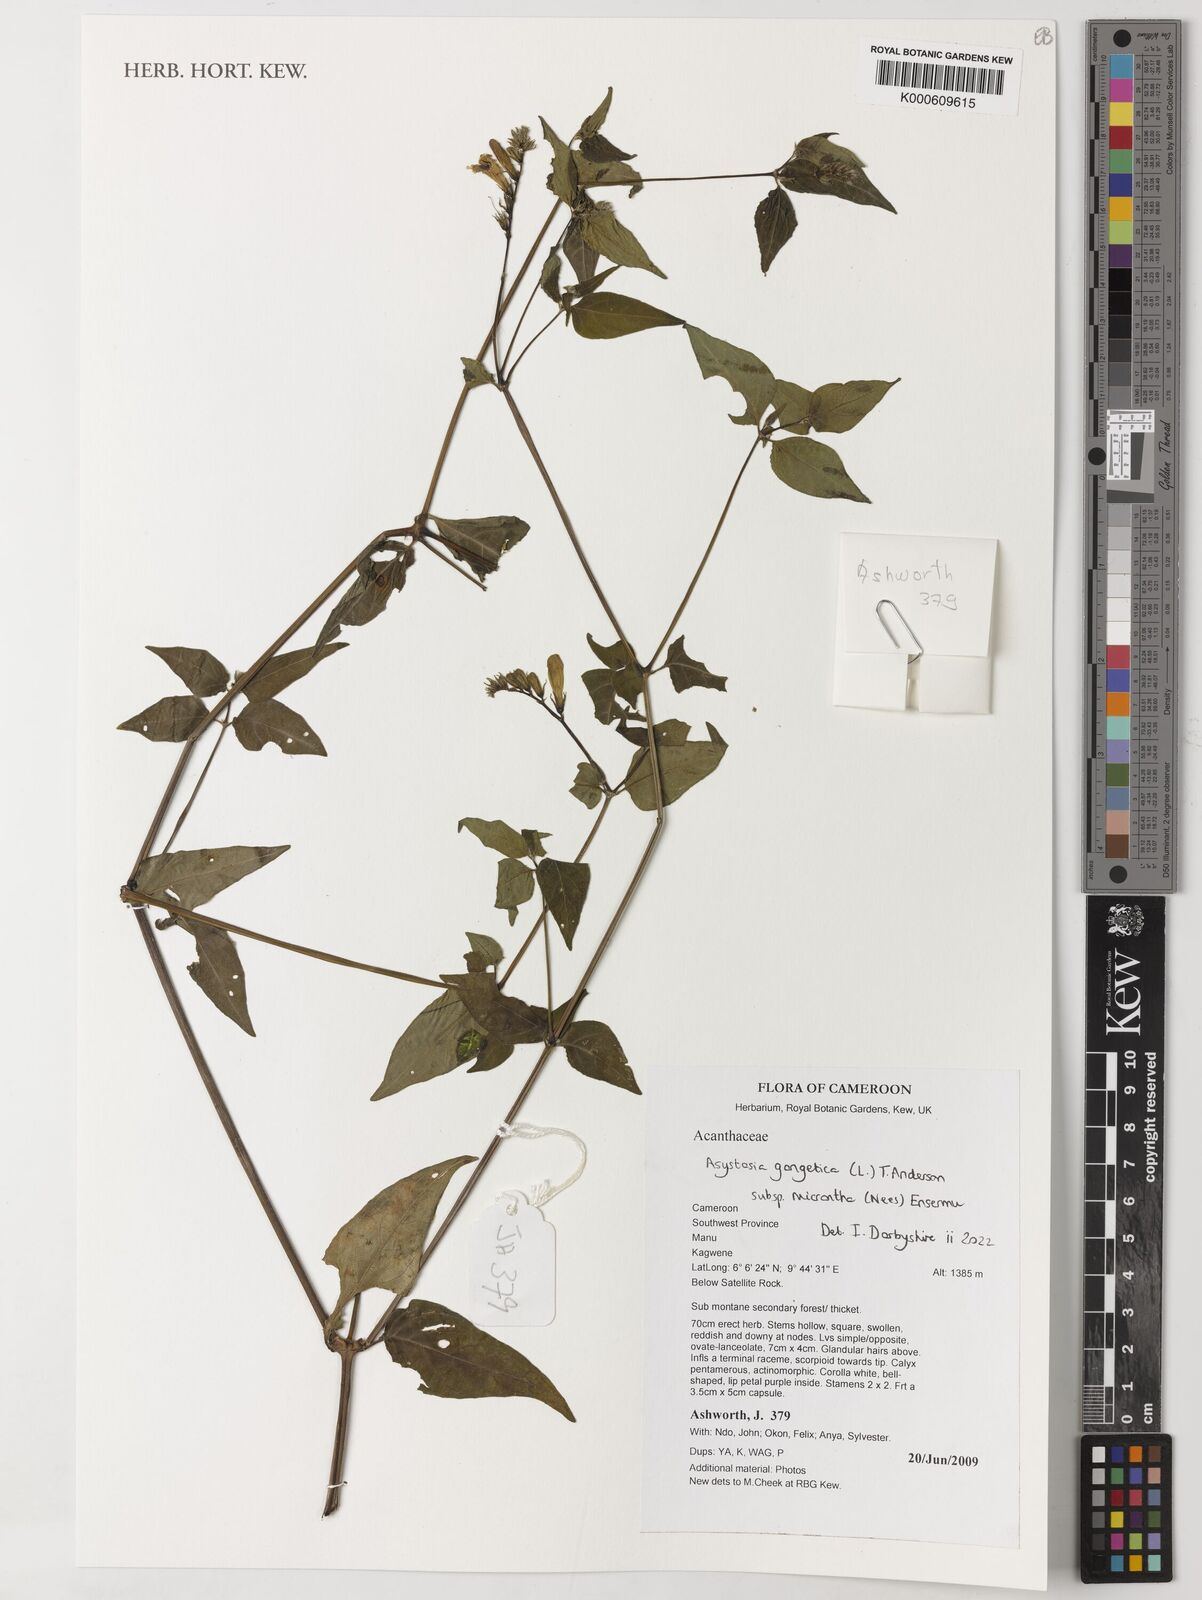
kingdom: Plantae
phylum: Tracheophyta
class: Magnoliopsida
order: Lamiales
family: Acanthaceae
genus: Asystasia
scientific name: Asystasia gangetica
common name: Chinese violet
